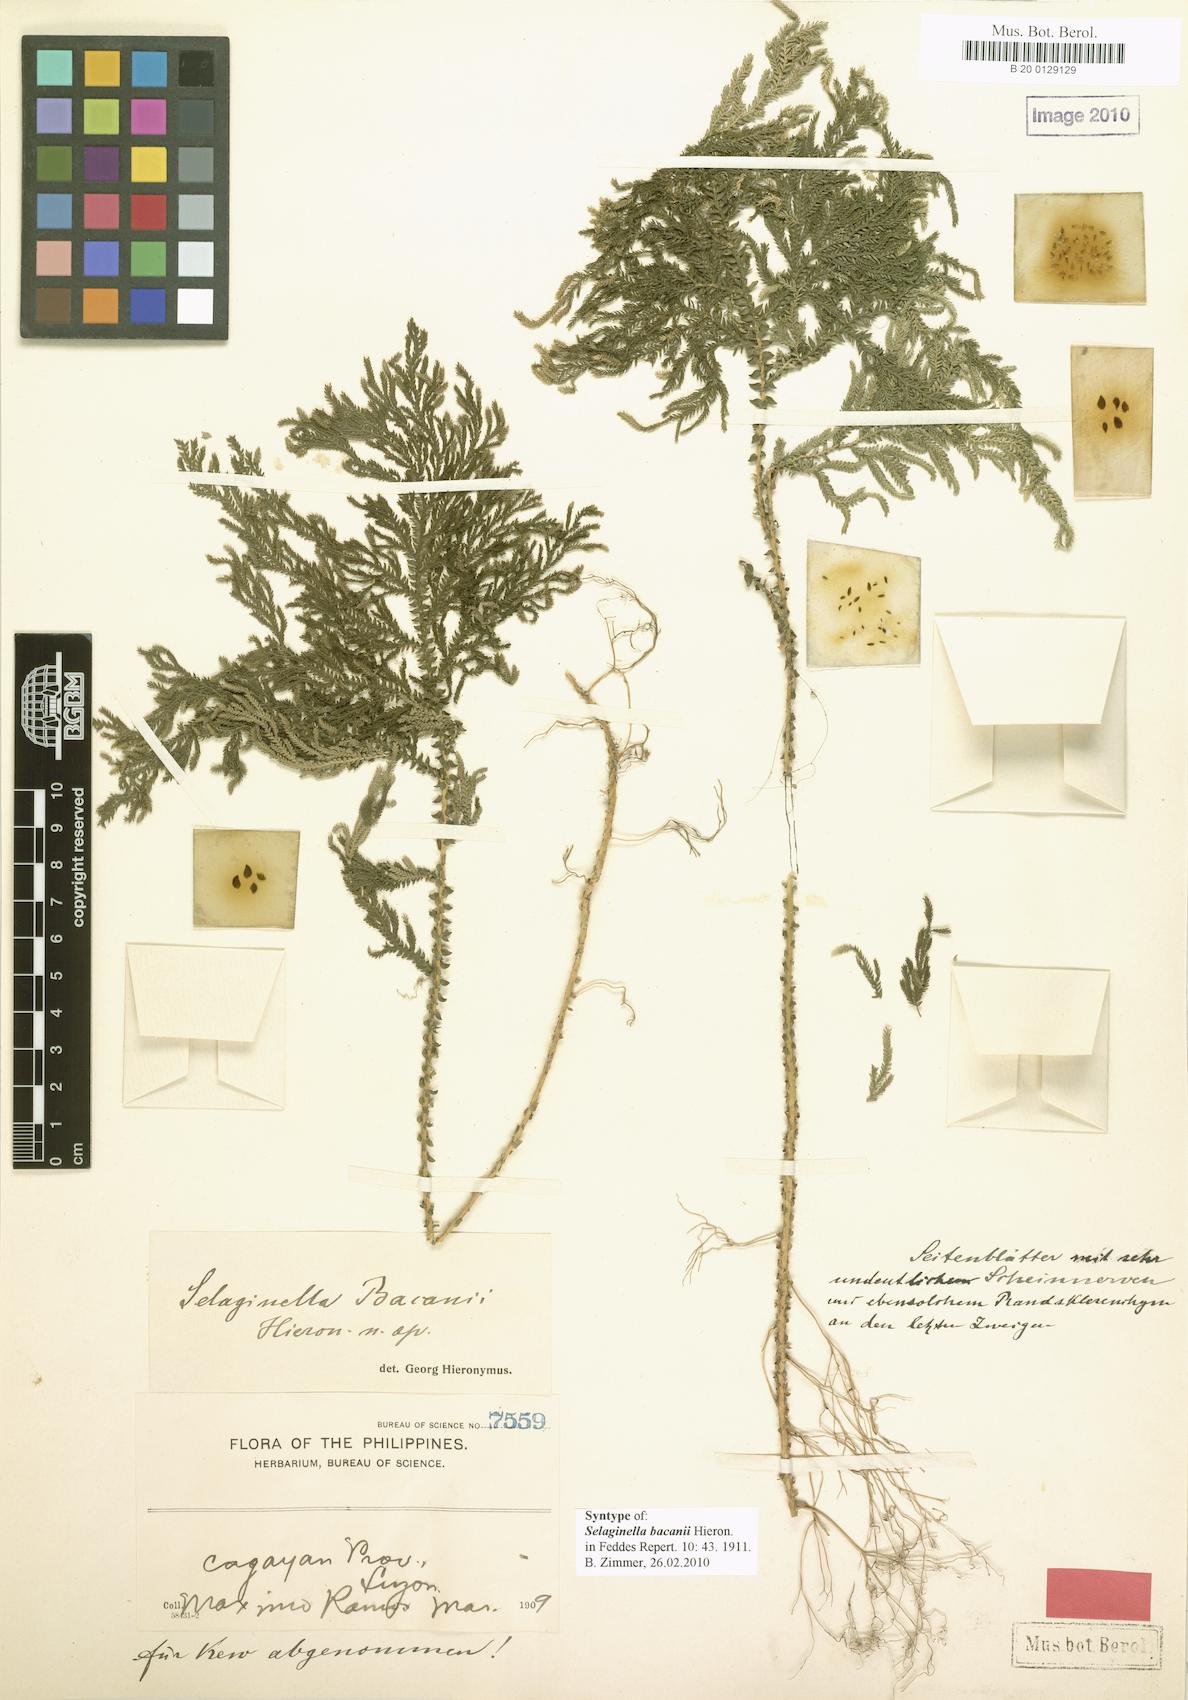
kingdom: Plantae
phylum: Tracheophyta
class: Lycopodiopsida
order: Selaginellales
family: Selaginellaceae
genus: Selaginella
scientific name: Selaginella aenea
